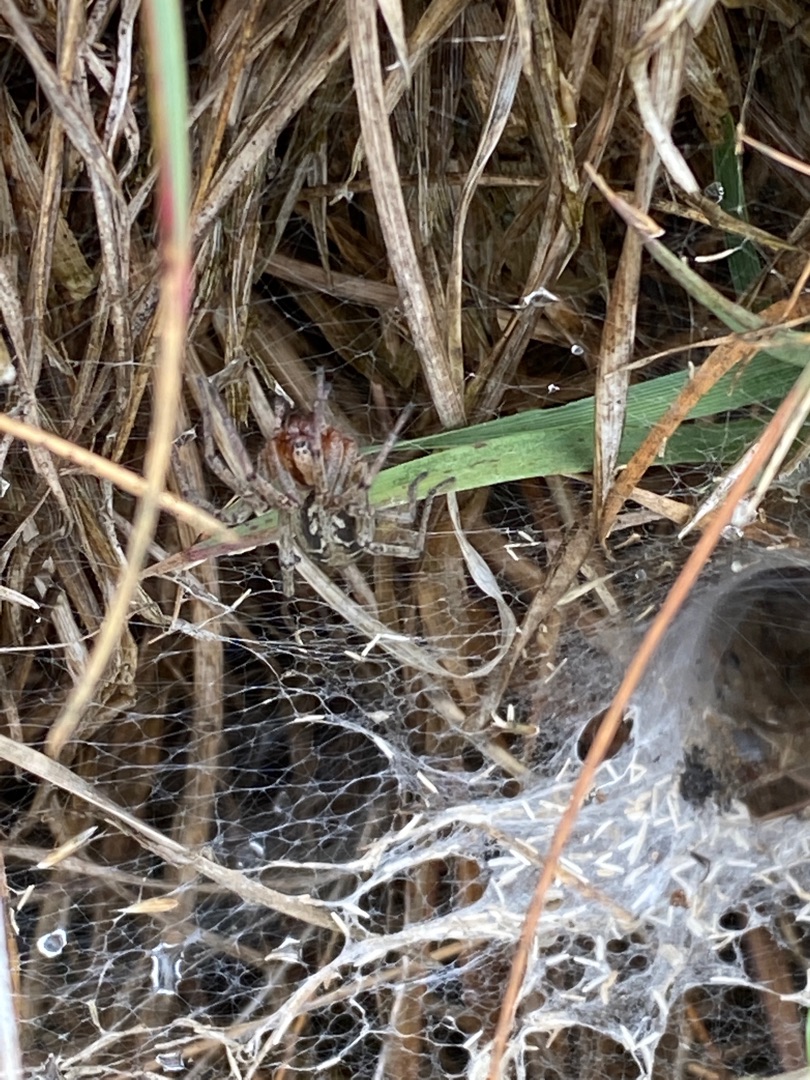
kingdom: Animalia
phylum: Arthropoda
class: Arachnida
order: Araneae
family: Agelenidae
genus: Agelena
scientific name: Agelena labyrinthica
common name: Labyrintedderkop
